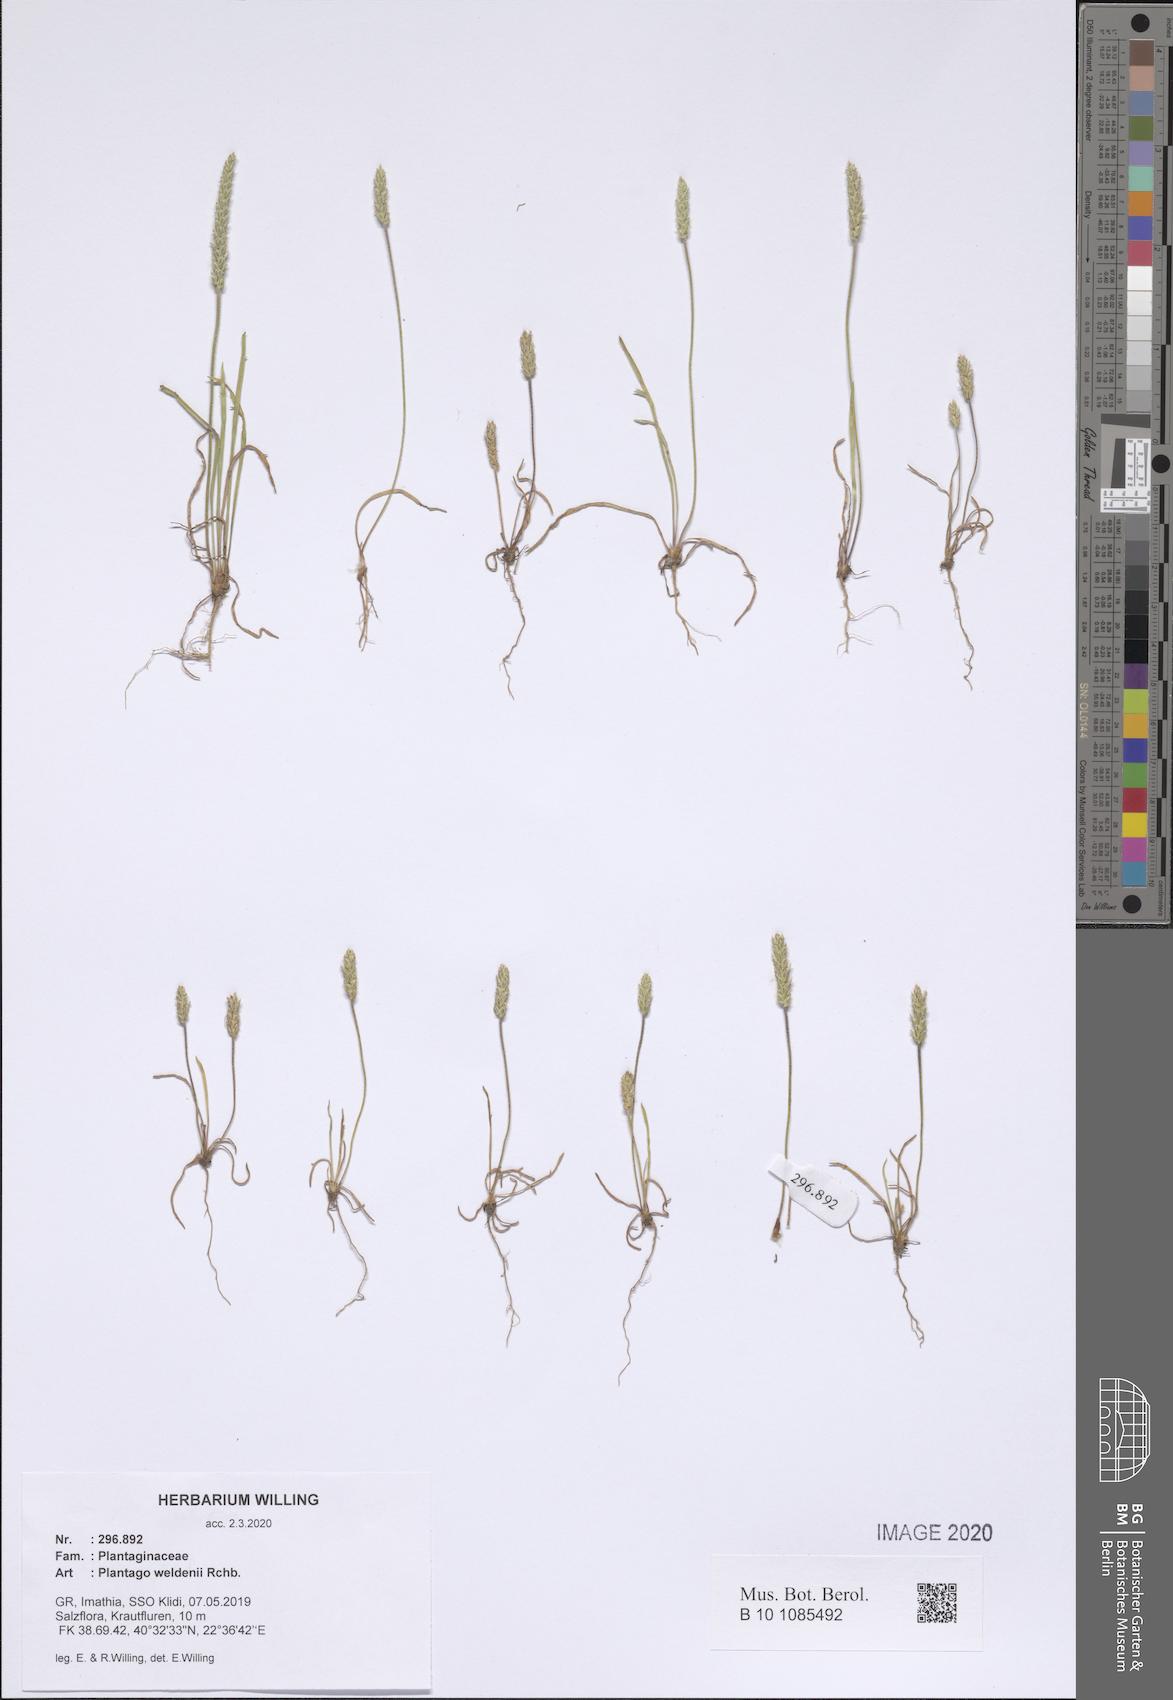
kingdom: Plantae
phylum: Tracheophyta
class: Magnoliopsida
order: Lamiales
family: Plantaginaceae
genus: Plantago
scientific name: Plantago weldenii
